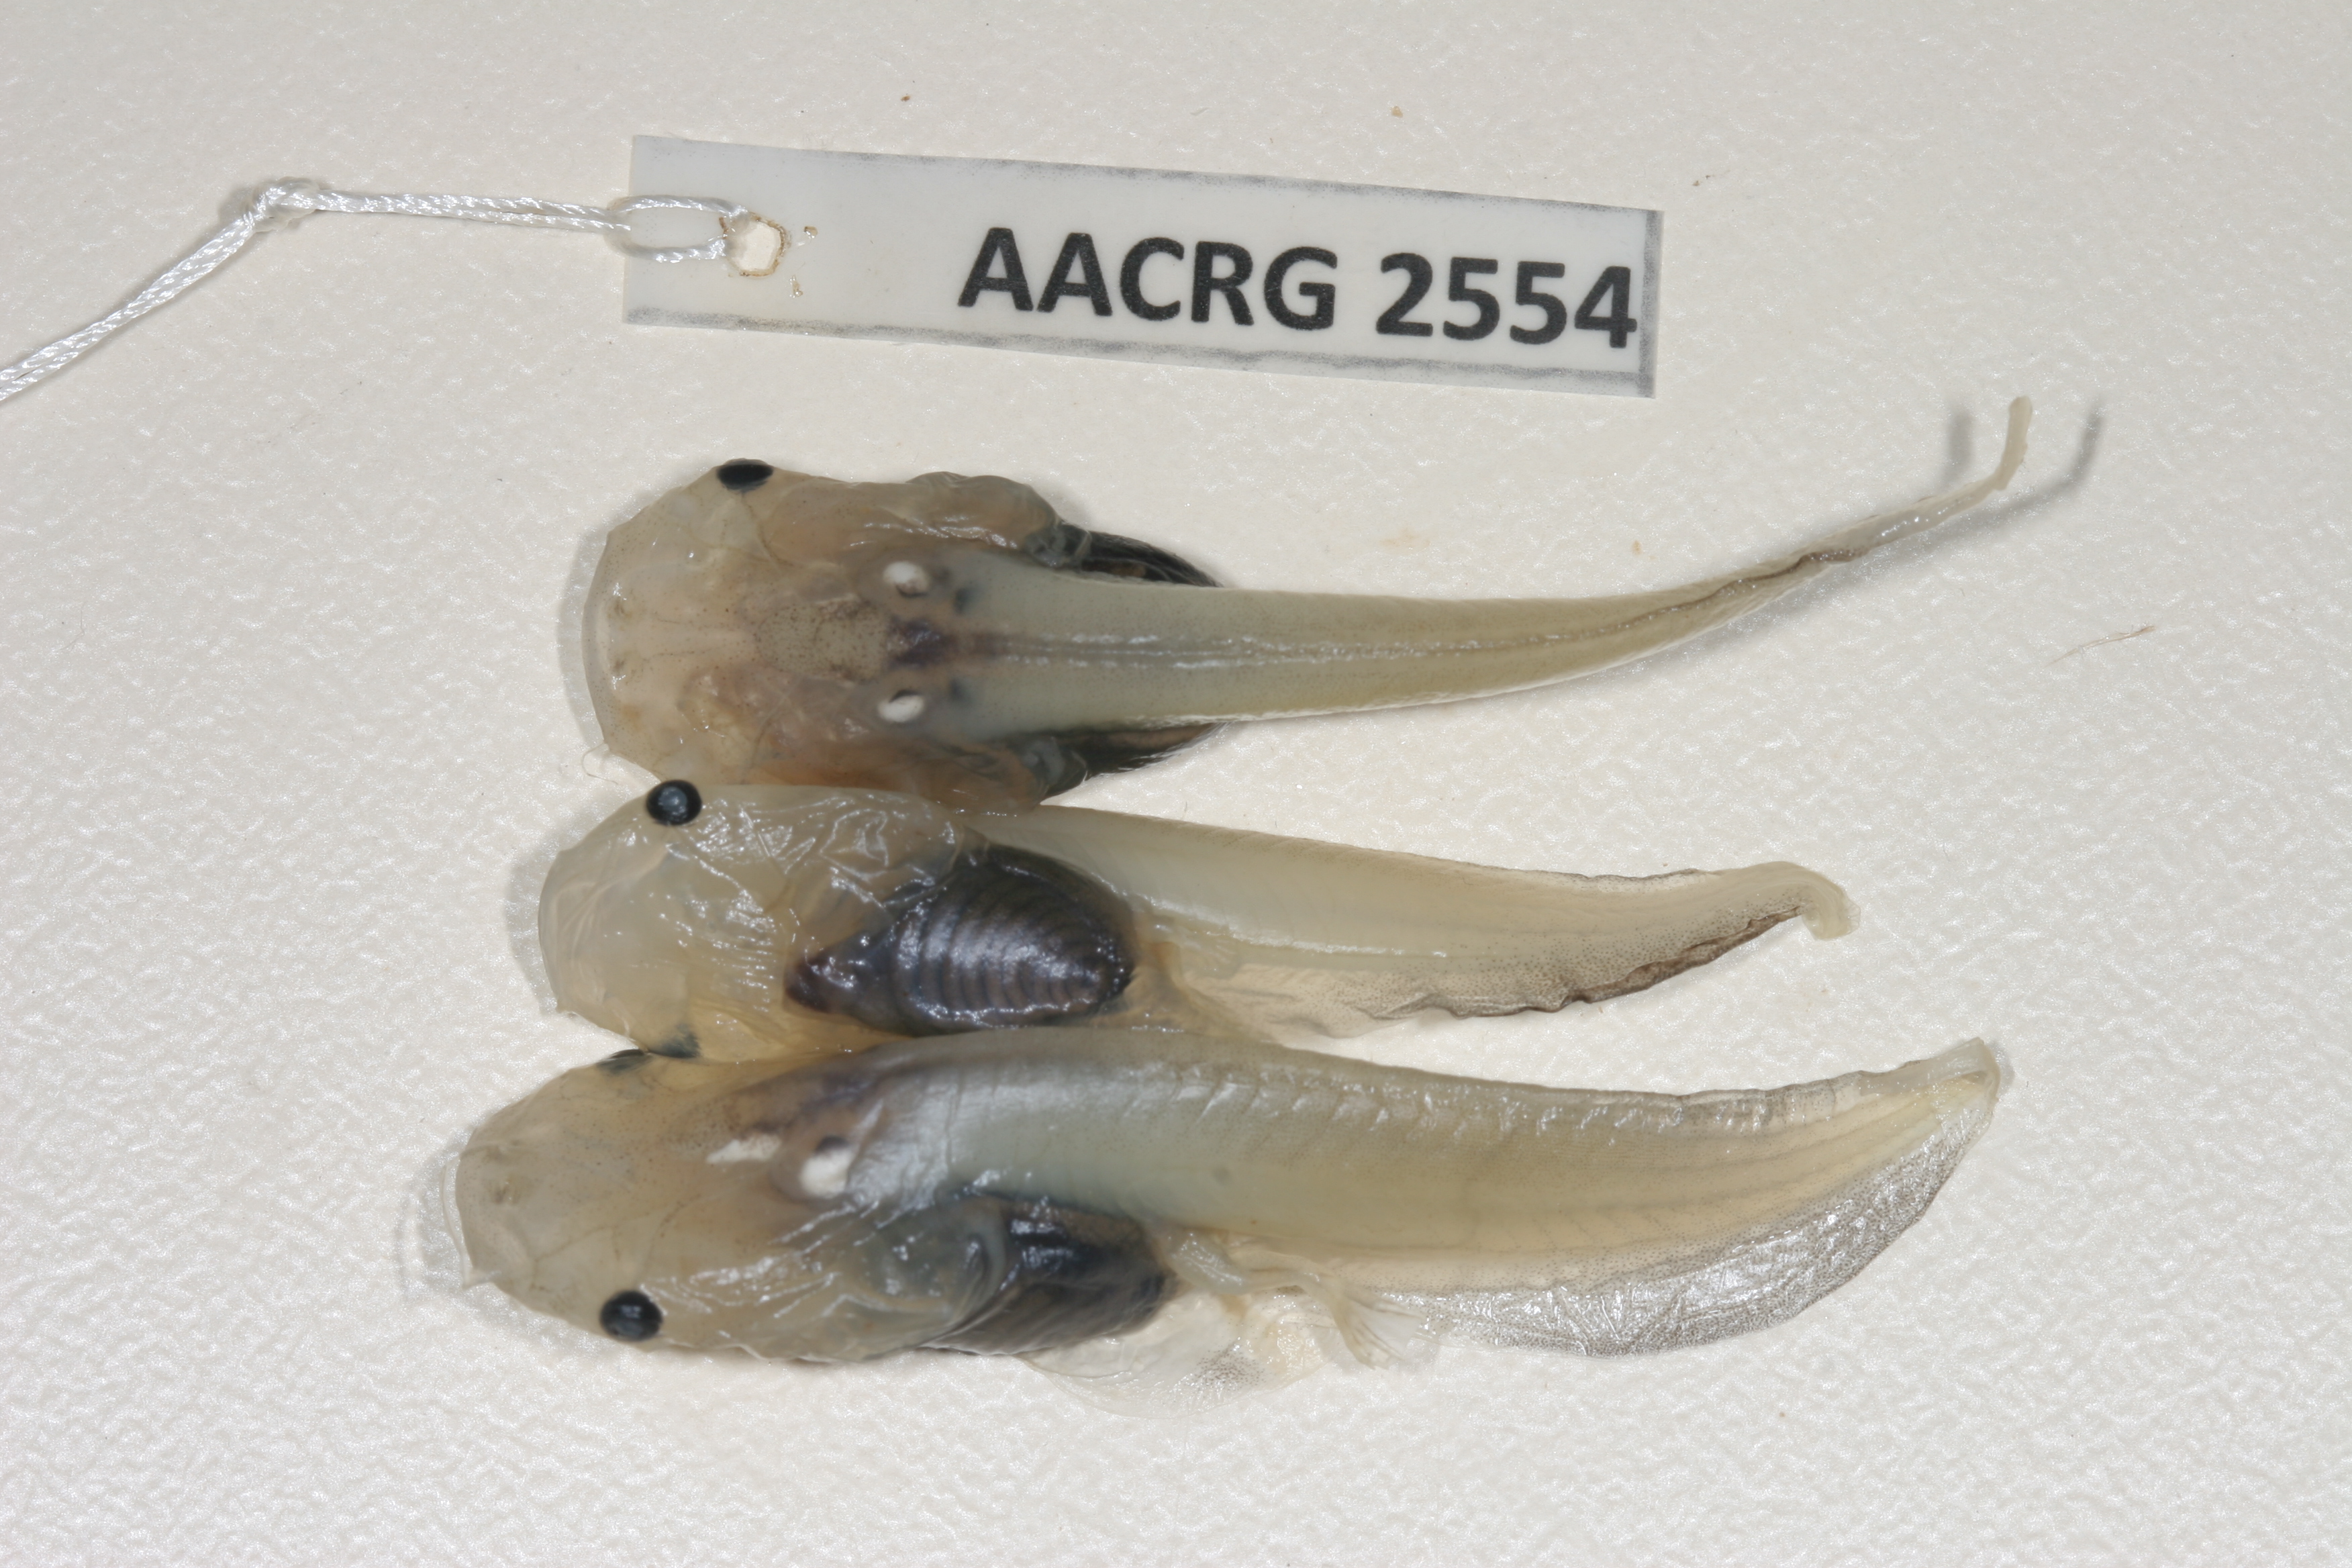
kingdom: Animalia
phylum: Chordata
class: Amphibia
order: Anura
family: Pipidae
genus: Xenopus
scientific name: Xenopus muelleri
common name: Muller's clawed frog
